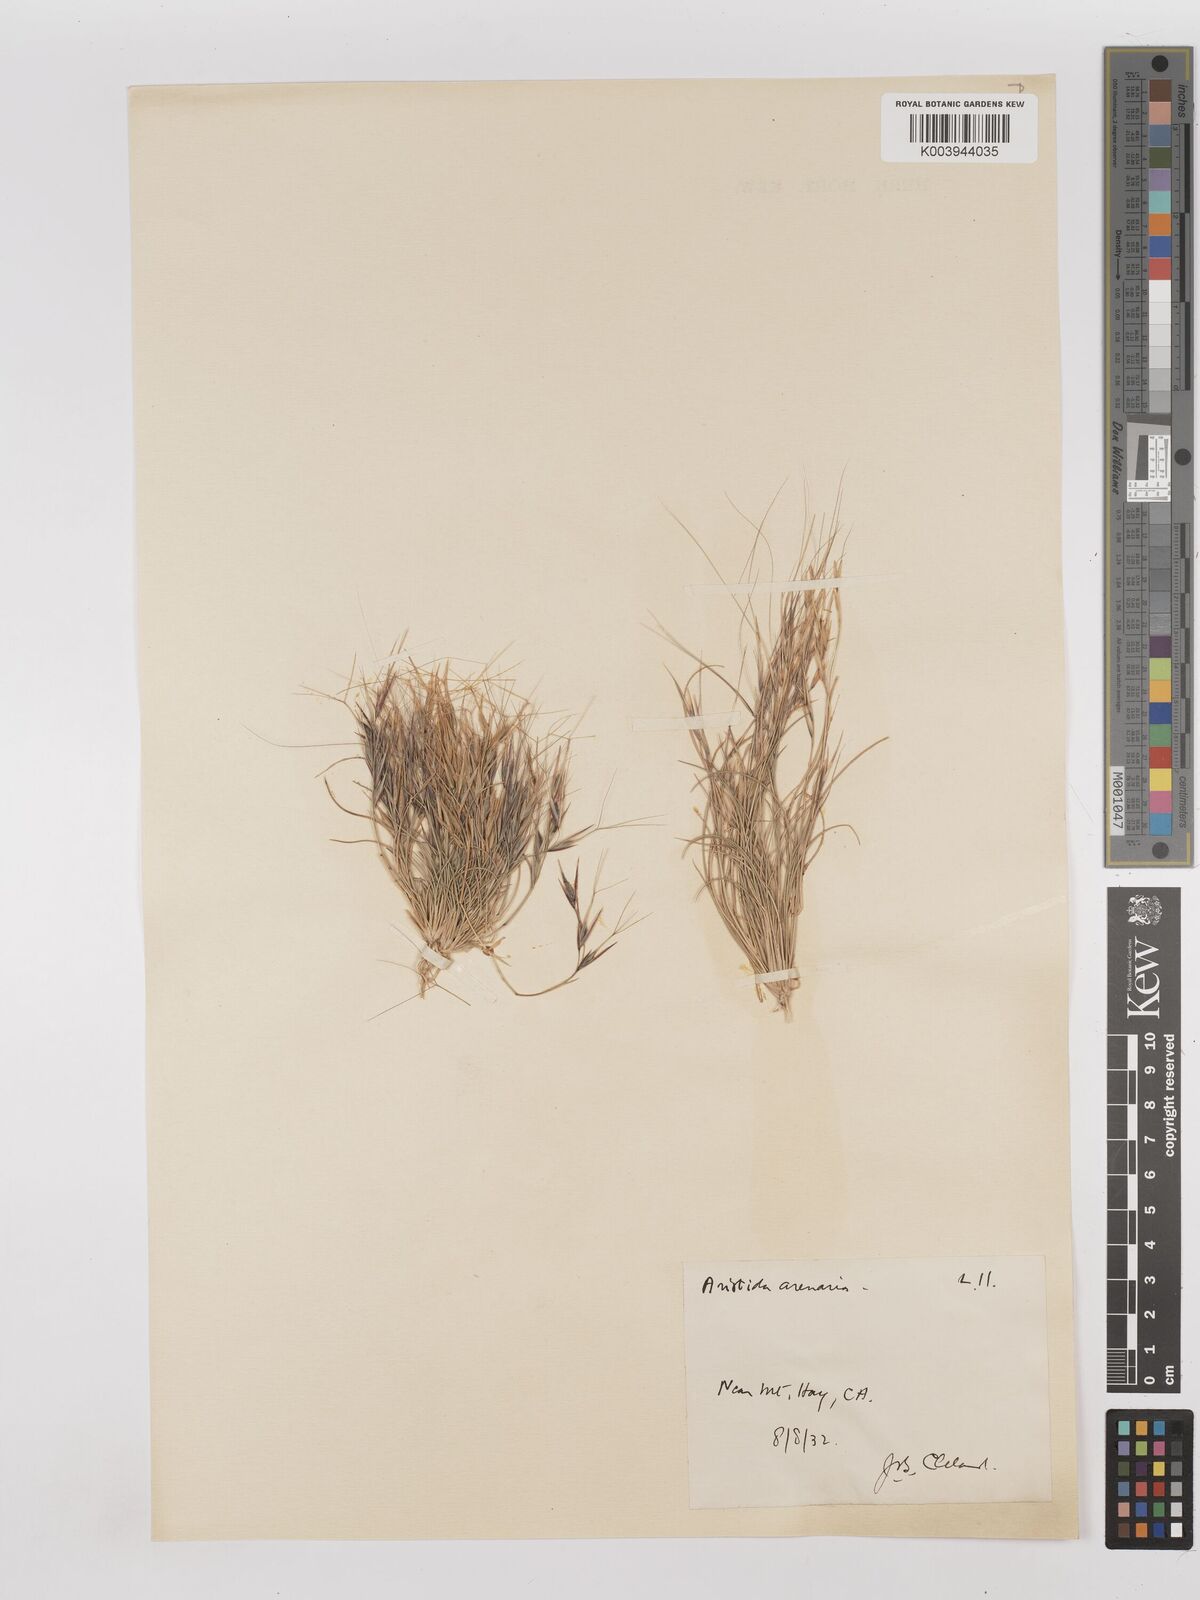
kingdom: Plantae
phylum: Tracheophyta
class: Liliopsida
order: Poales
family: Poaceae
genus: Aristida
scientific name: Aristida contorta
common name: Bunch kerosene grass
